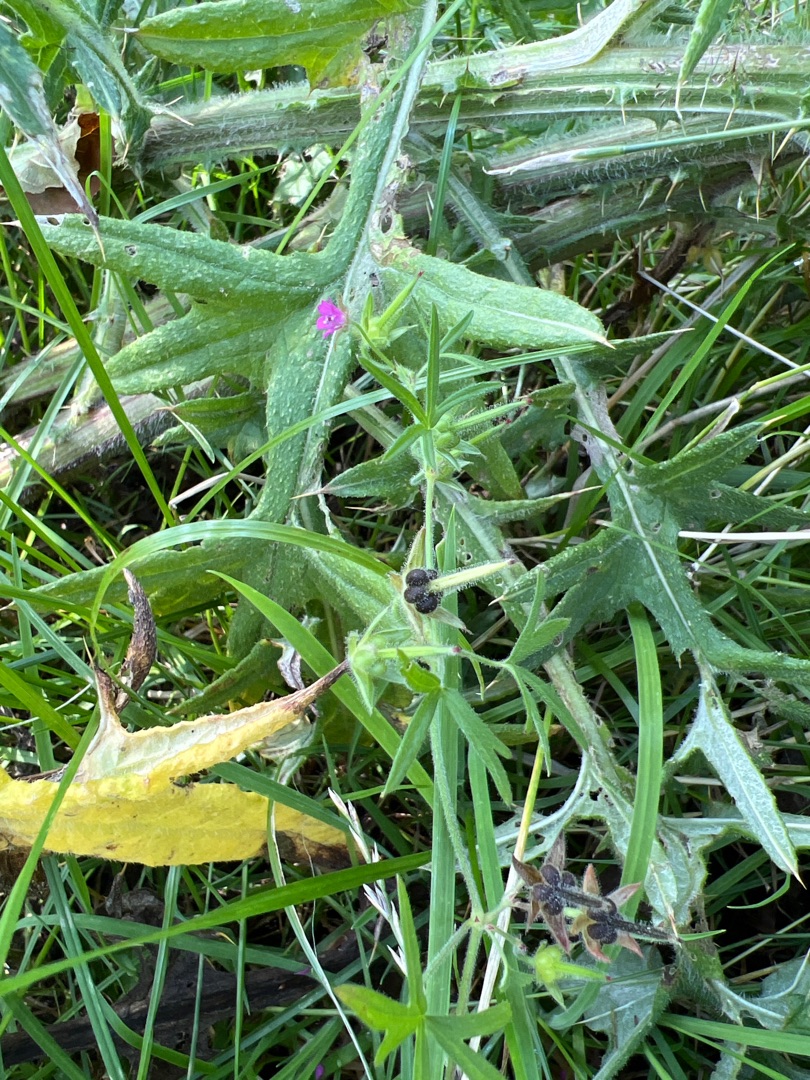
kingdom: Plantae
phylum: Tracheophyta
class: Magnoliopsida
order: Geraniales
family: Geraniaceae
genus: Geranium
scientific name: Geranium dissectum
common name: Kløftet storkenæb
